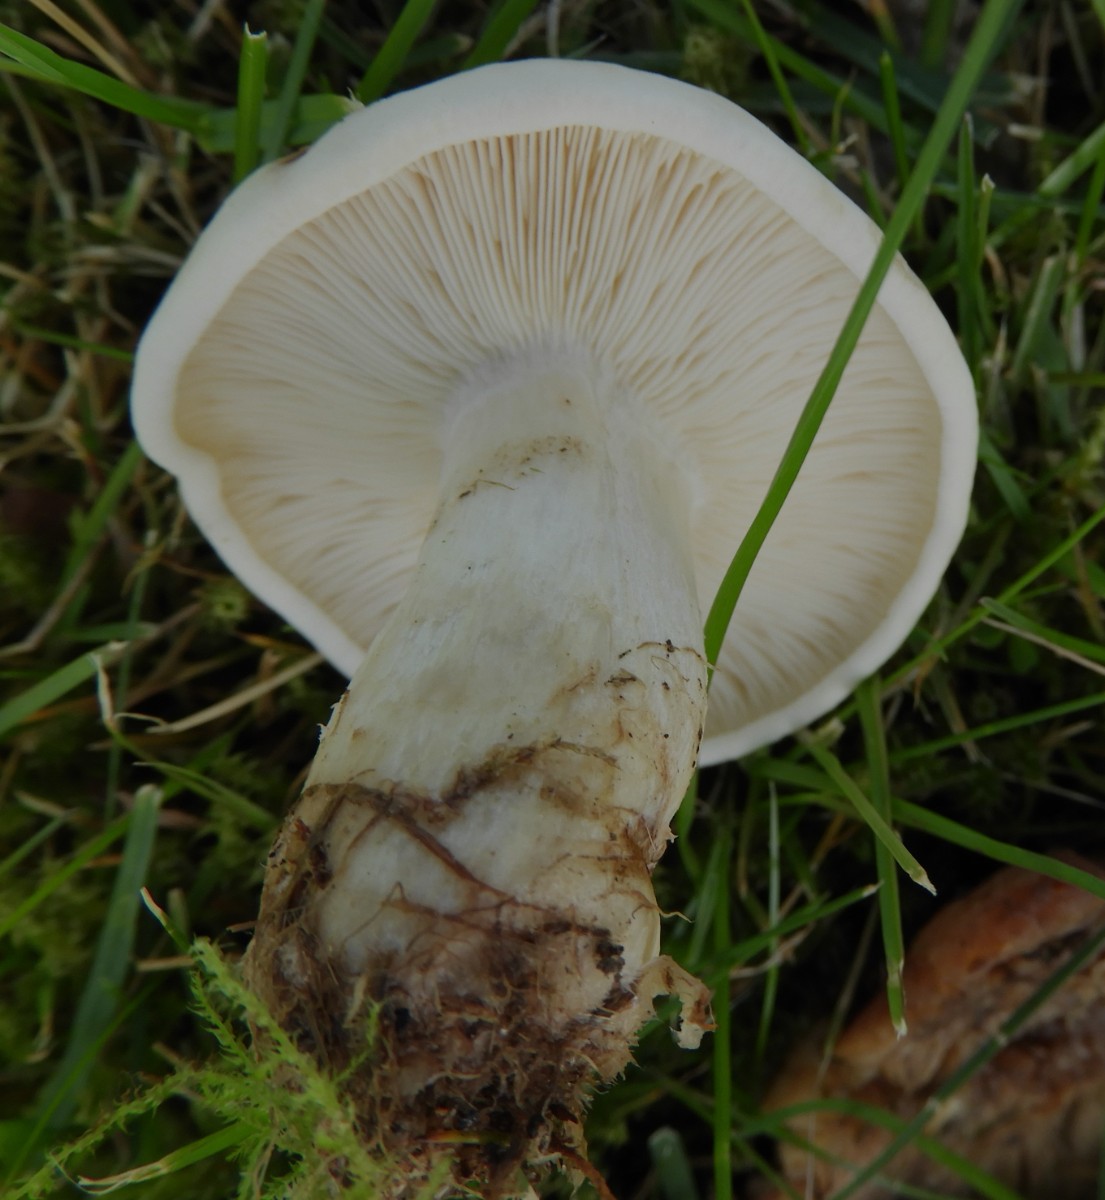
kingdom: Fungi
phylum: Basidiomycota
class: Agaricomycetes
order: Agaricales
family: Lyophyllaceae
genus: Calocybe
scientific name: Calocybe gambosa
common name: vårmusseron
